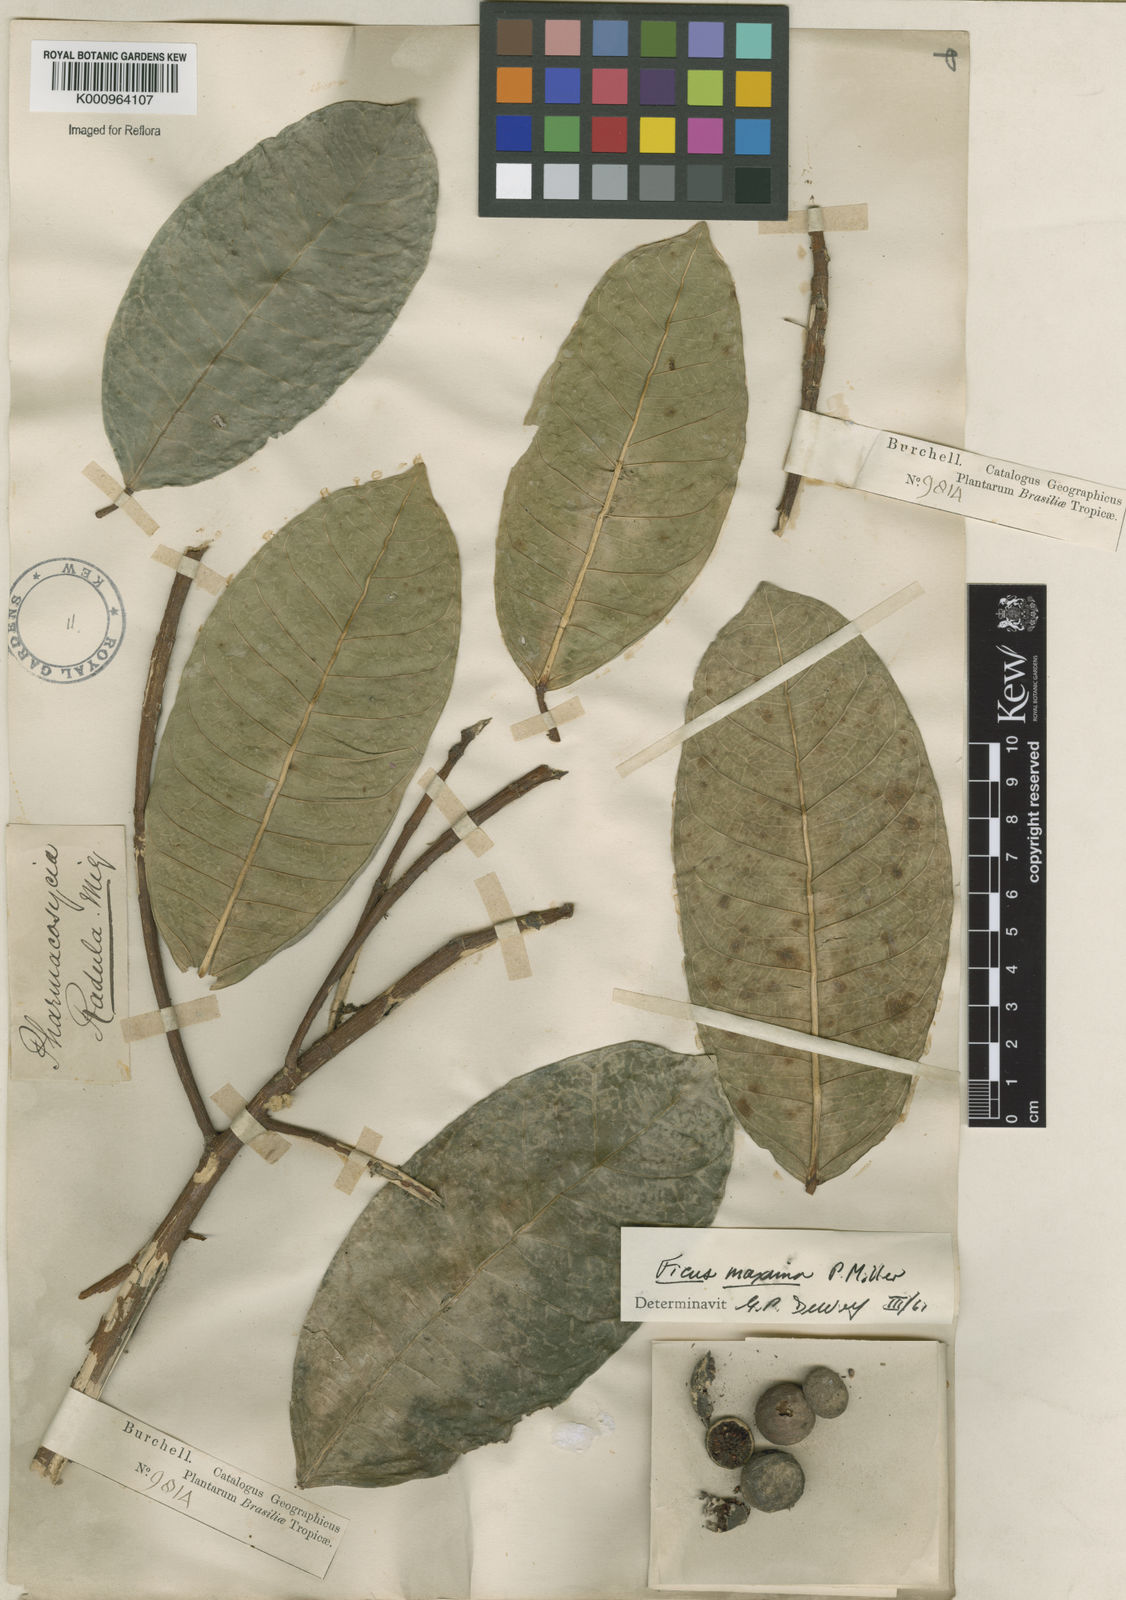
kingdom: Plantae
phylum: Tracheophyta
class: Magnoliopsida
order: Rosales
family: Moraceae
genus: Ficus
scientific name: Ficus maxima
